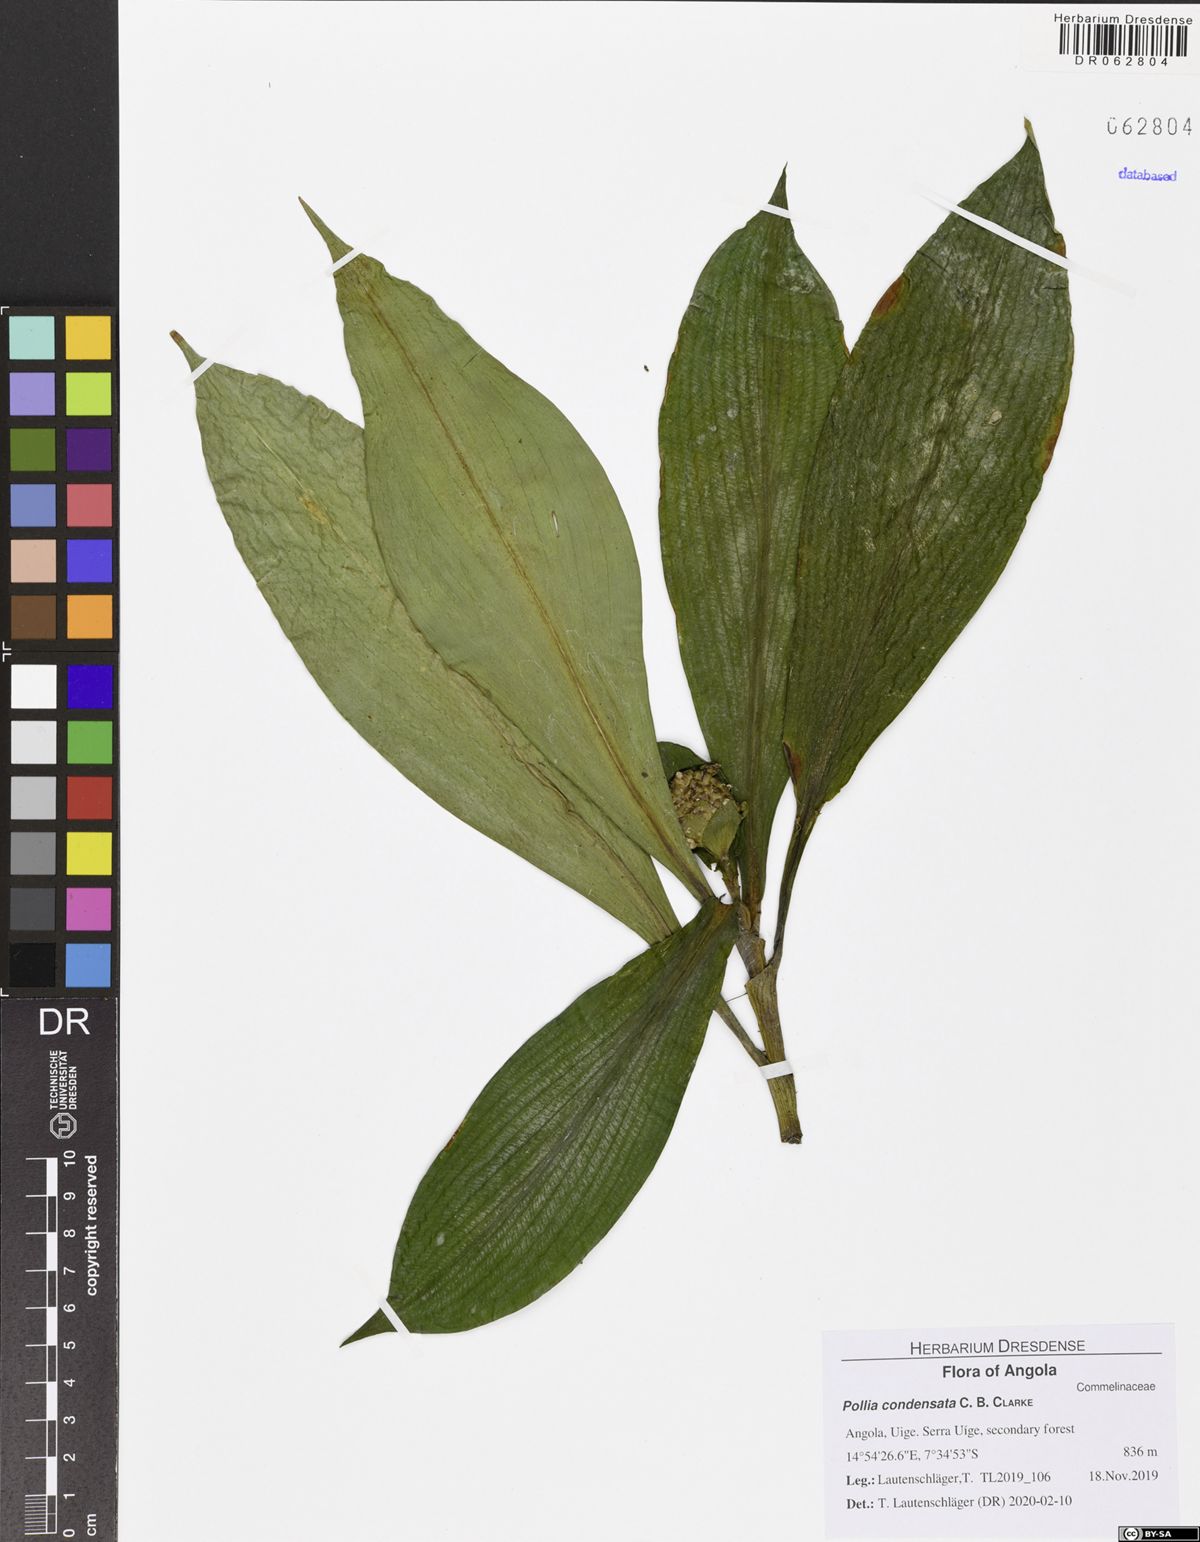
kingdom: Plantae
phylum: Tracheophyta
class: Liliopsida
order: Commelinales
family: Commelinaceae
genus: Pollia
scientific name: Pollia condensata
